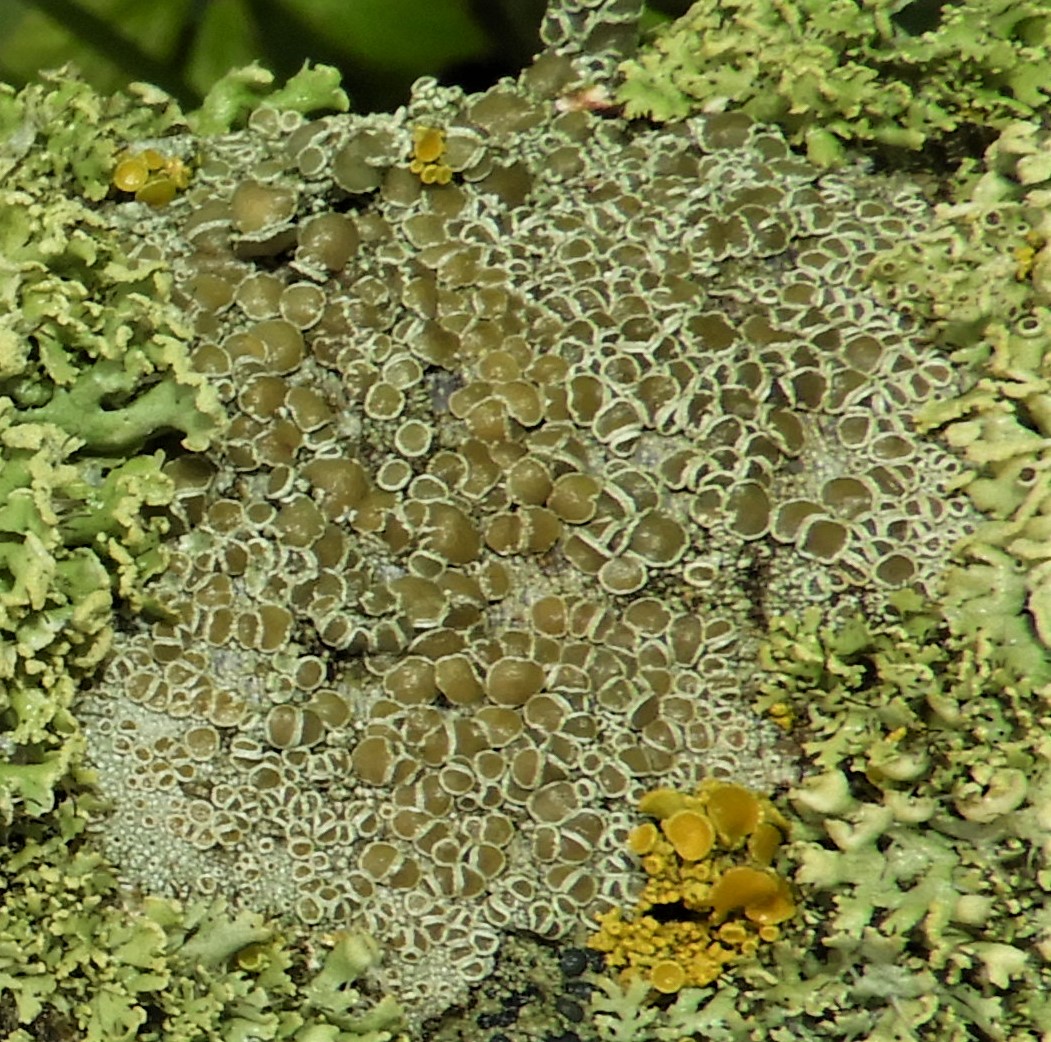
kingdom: Fungi
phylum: Ascomycota
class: Lecanoromycetes
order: Lecanorales
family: Lecanoraceae
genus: Lecanora
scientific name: Lecanora chlarotera
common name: brun kantskivelav
